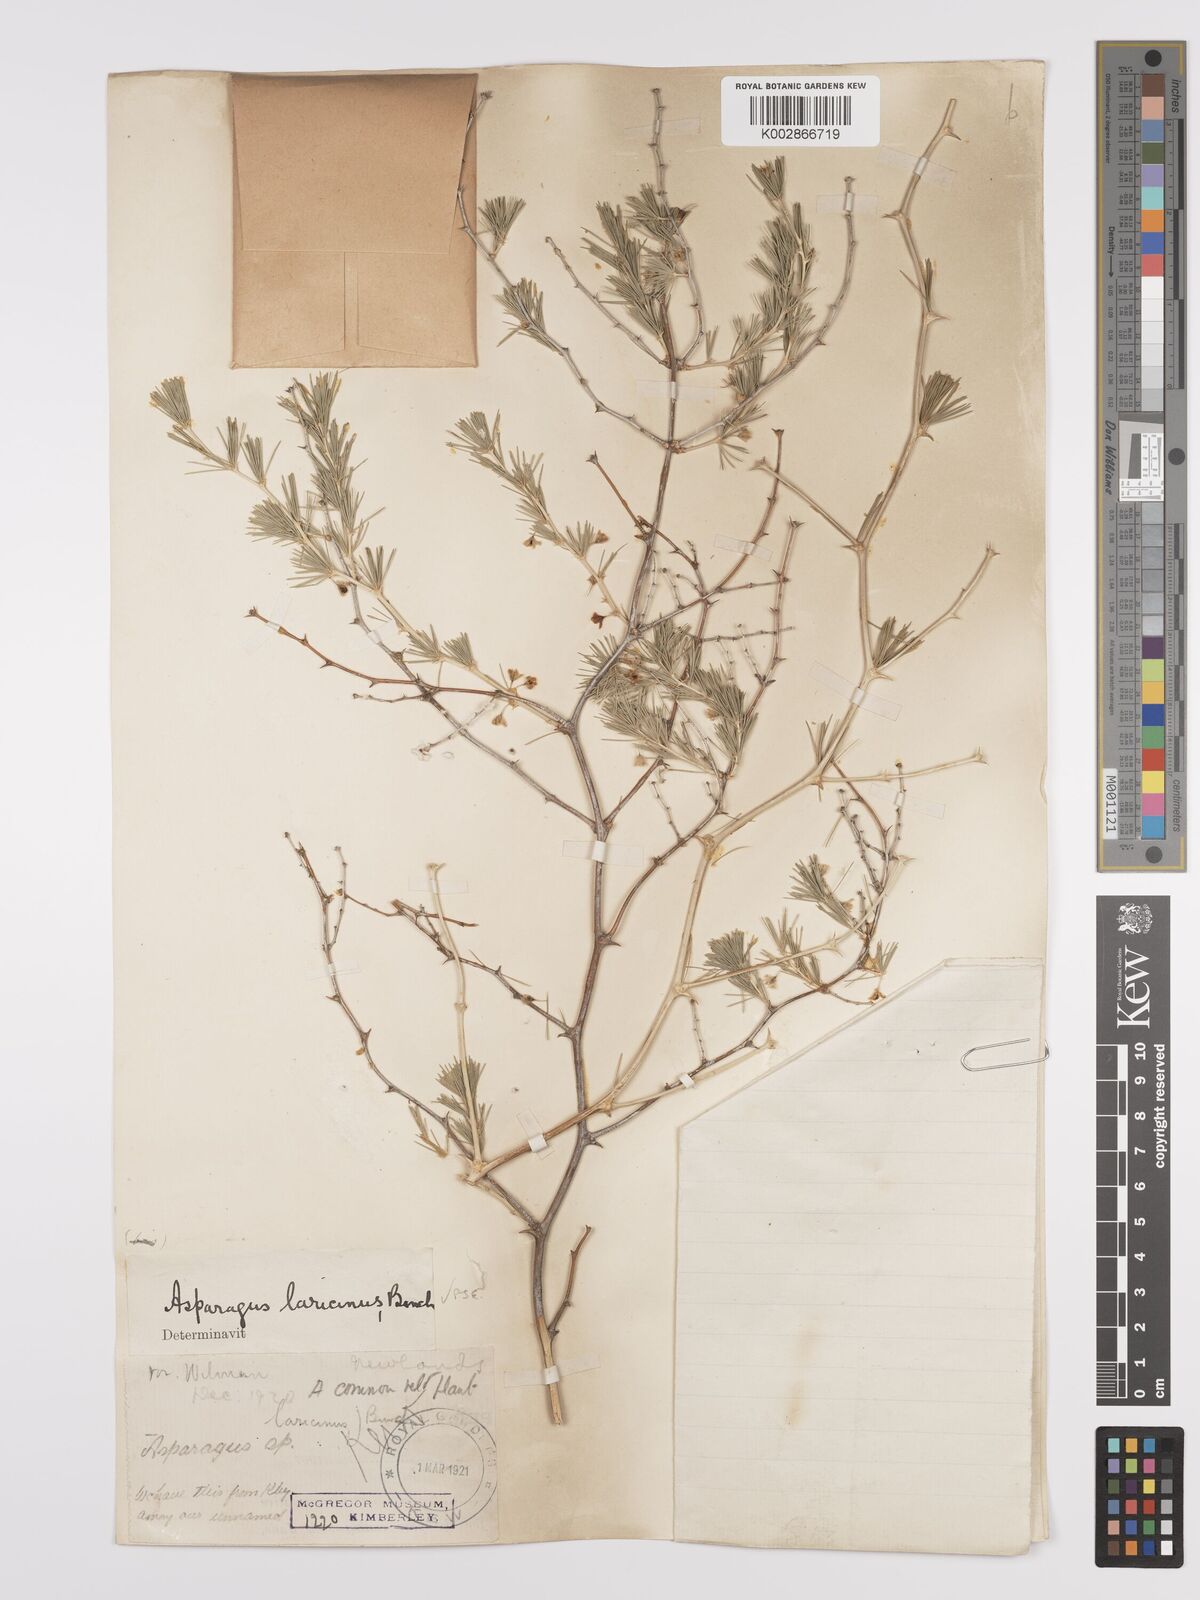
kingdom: Plantae
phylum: Tracheophyta
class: Liliopsida
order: Asparagales
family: Asparagaceae
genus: Asparagus
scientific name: Asparagus laricinus
